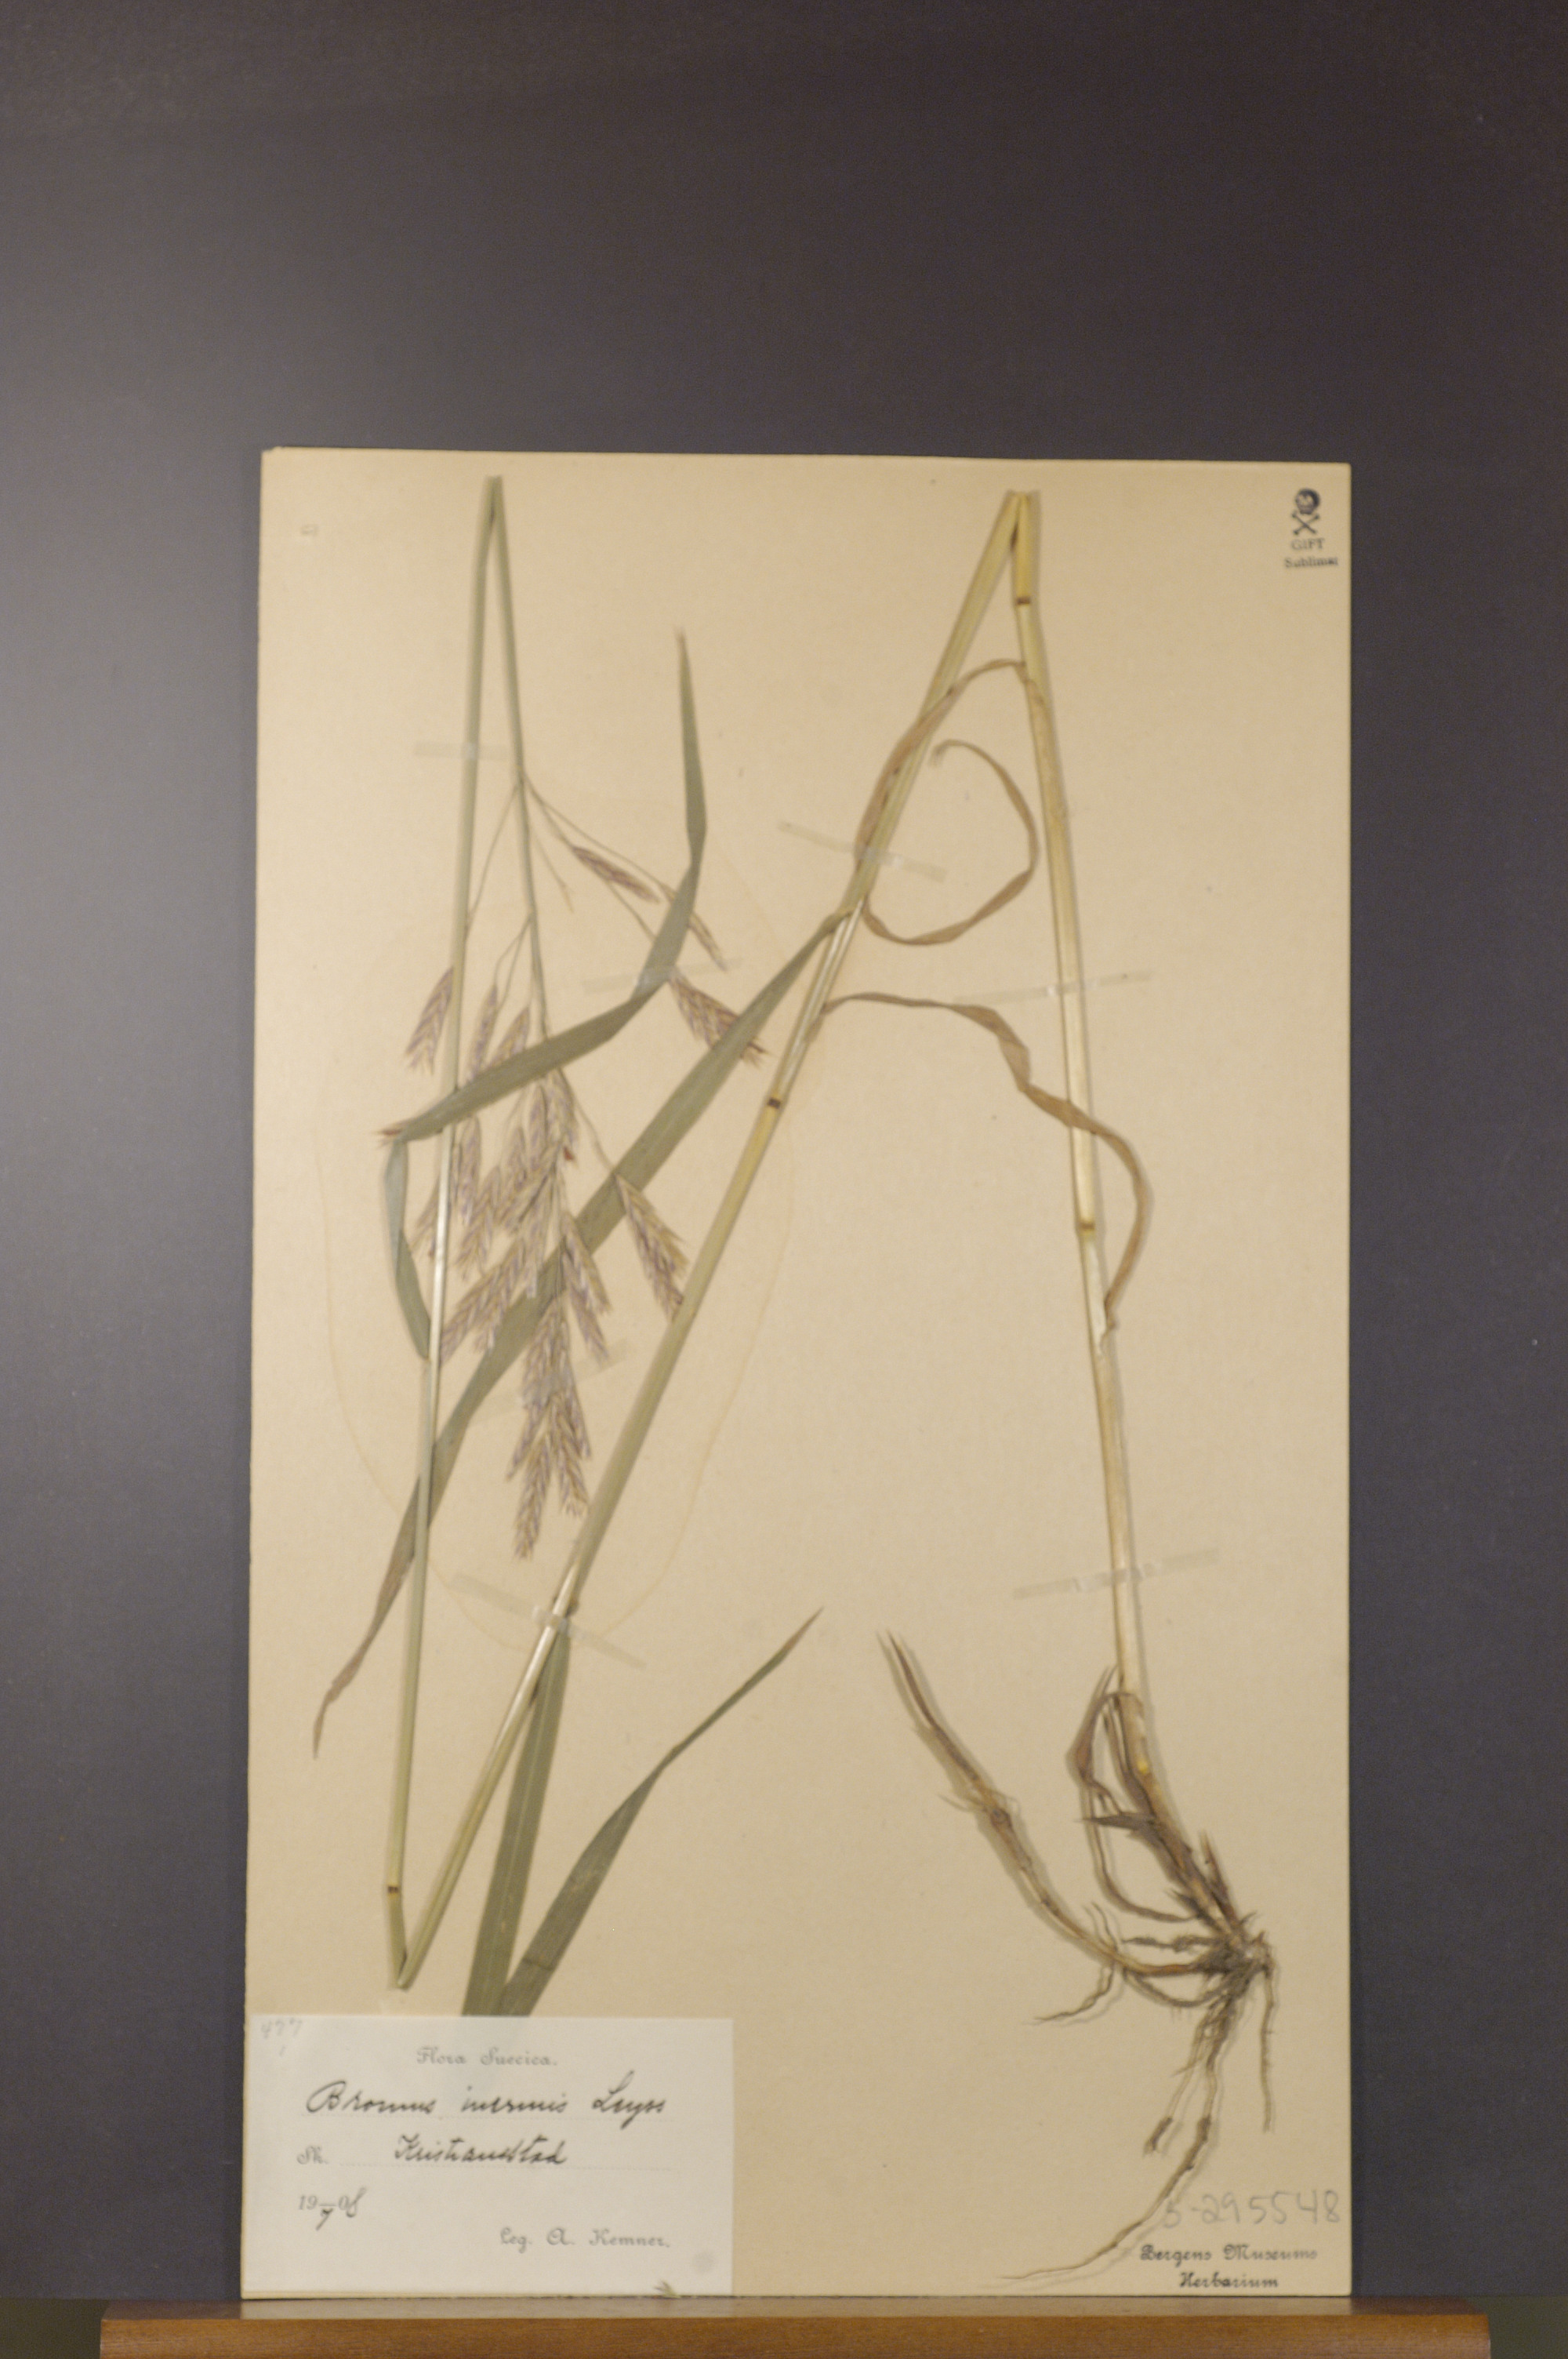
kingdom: Plantae
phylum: Tracheophyta
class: Liliopsida
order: Poales
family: Poaceae
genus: Bromus
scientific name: Bromus inermis
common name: Smooth brome
